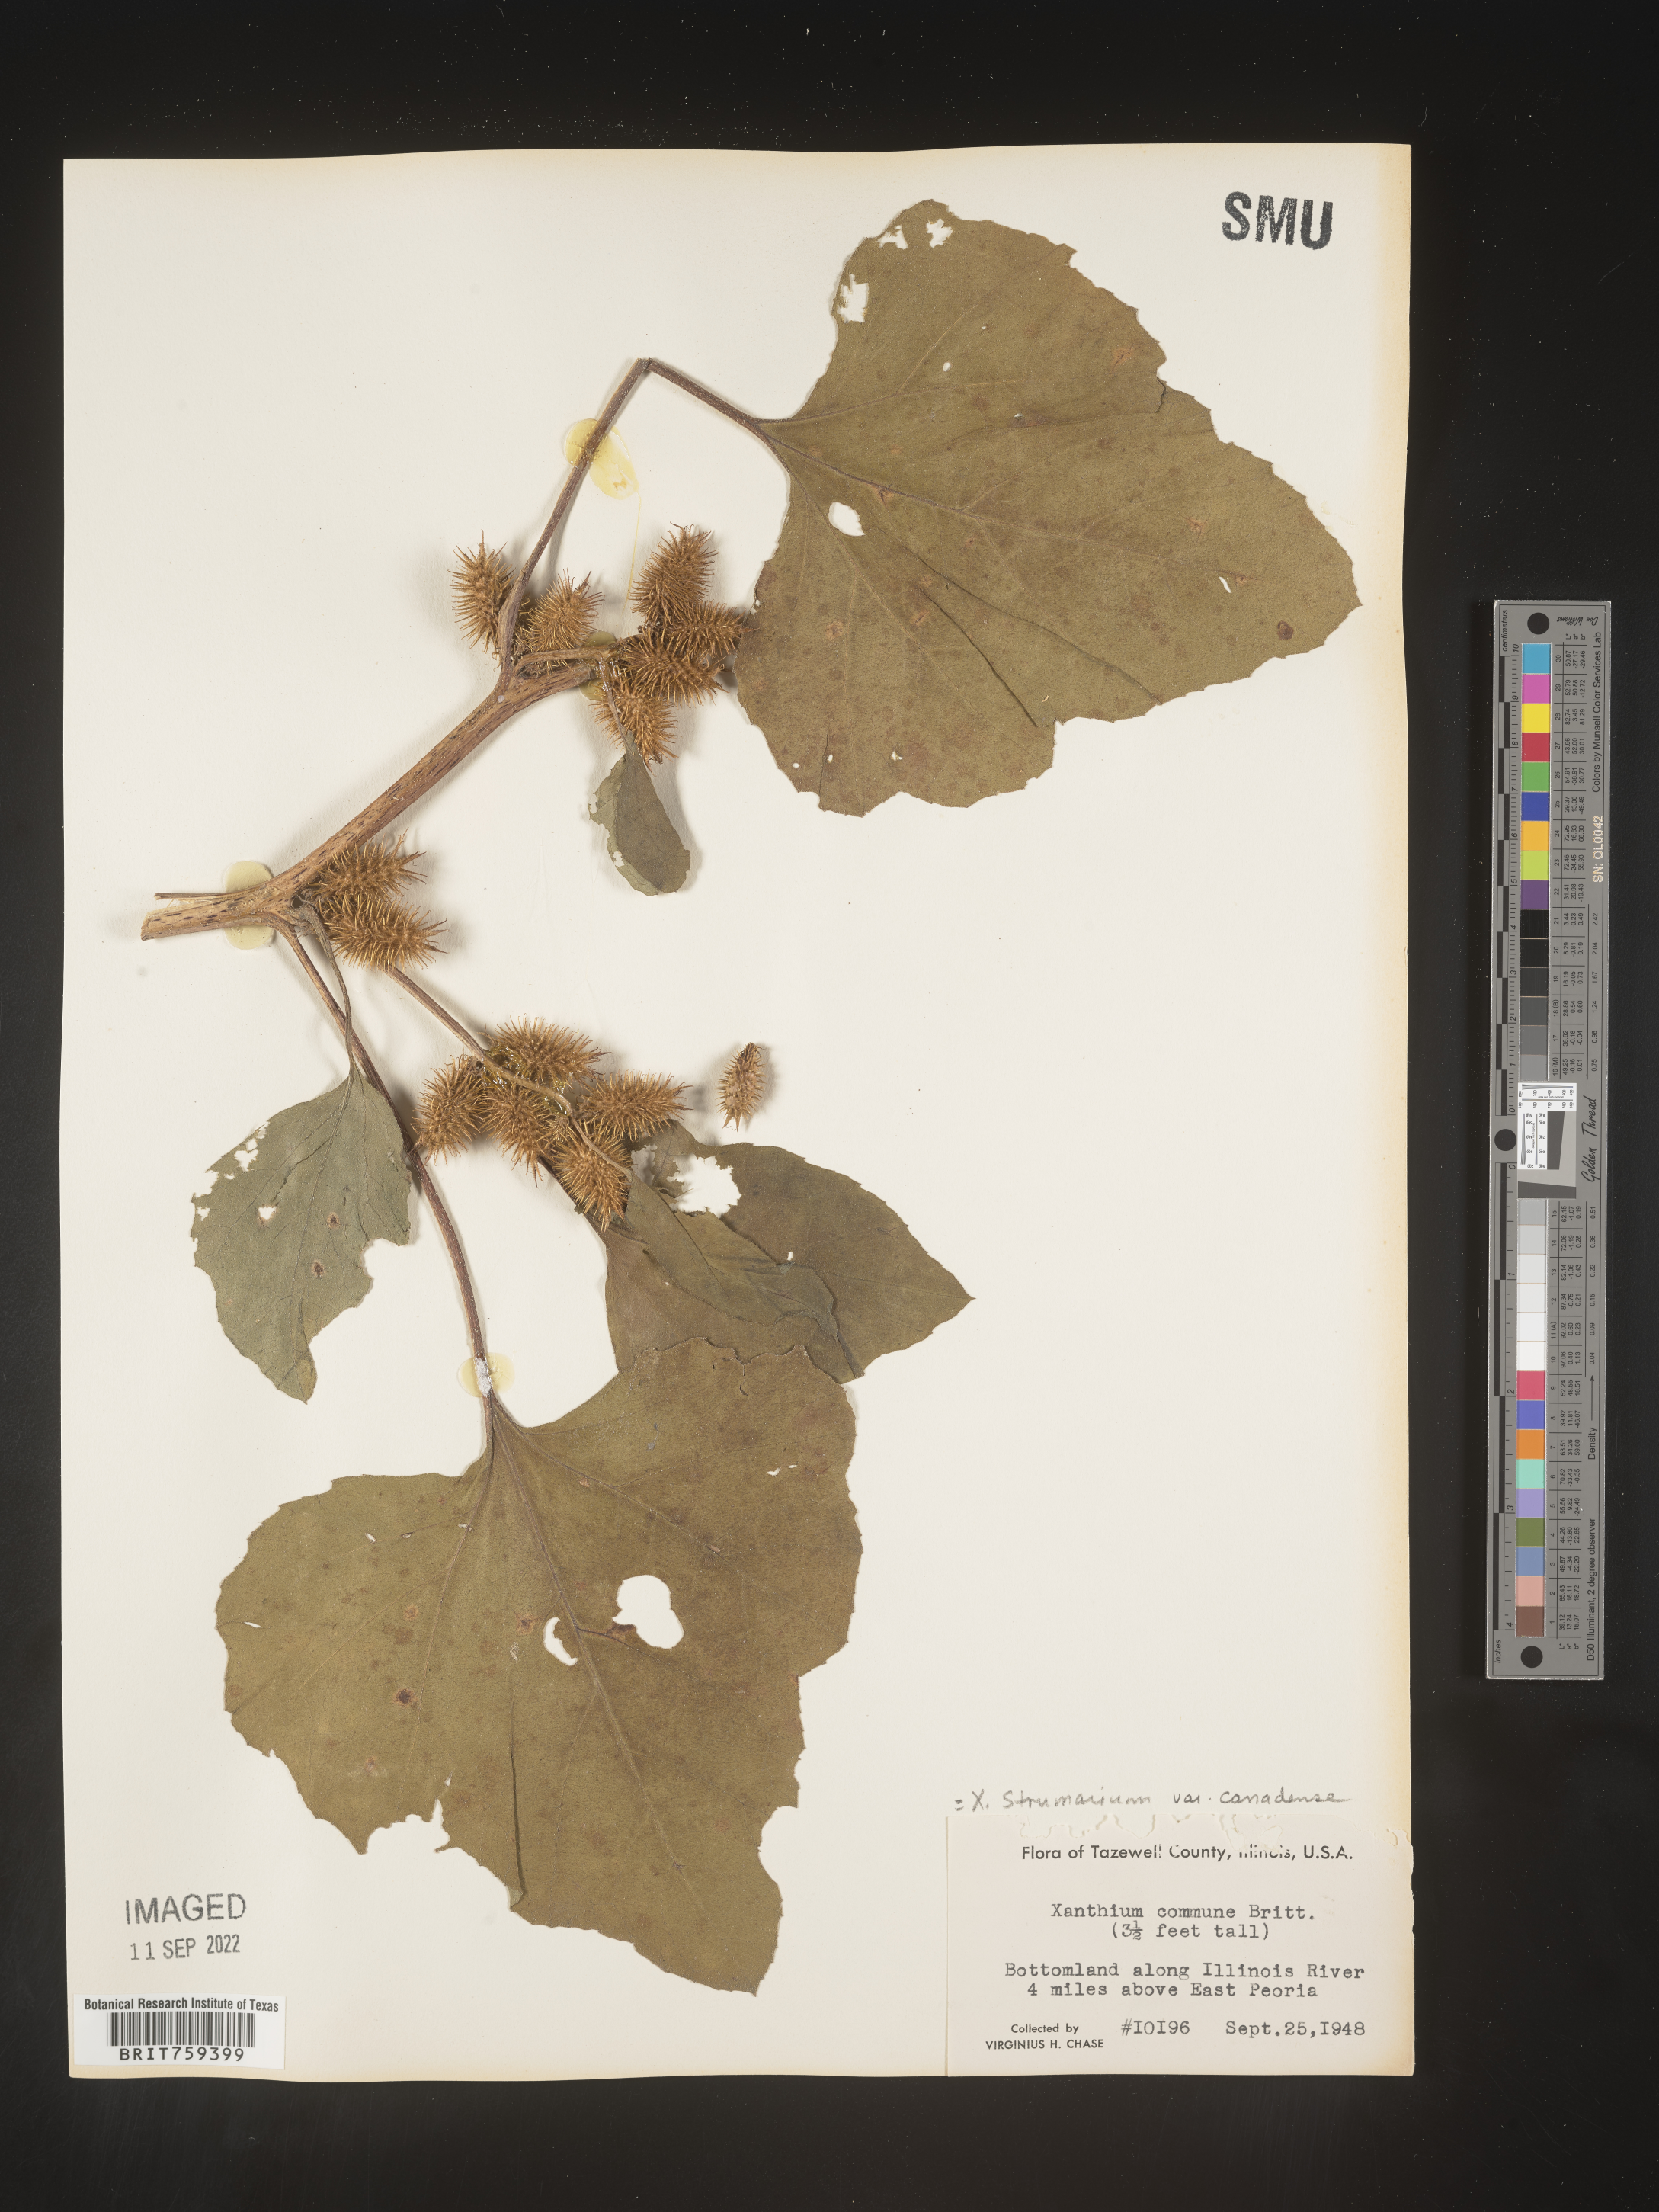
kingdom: Plantae
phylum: Tracheophyta
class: Magnoliopsida
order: Asterales
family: Asteraceae
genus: Xanthium
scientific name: Xanthium orientale
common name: Californian burr
